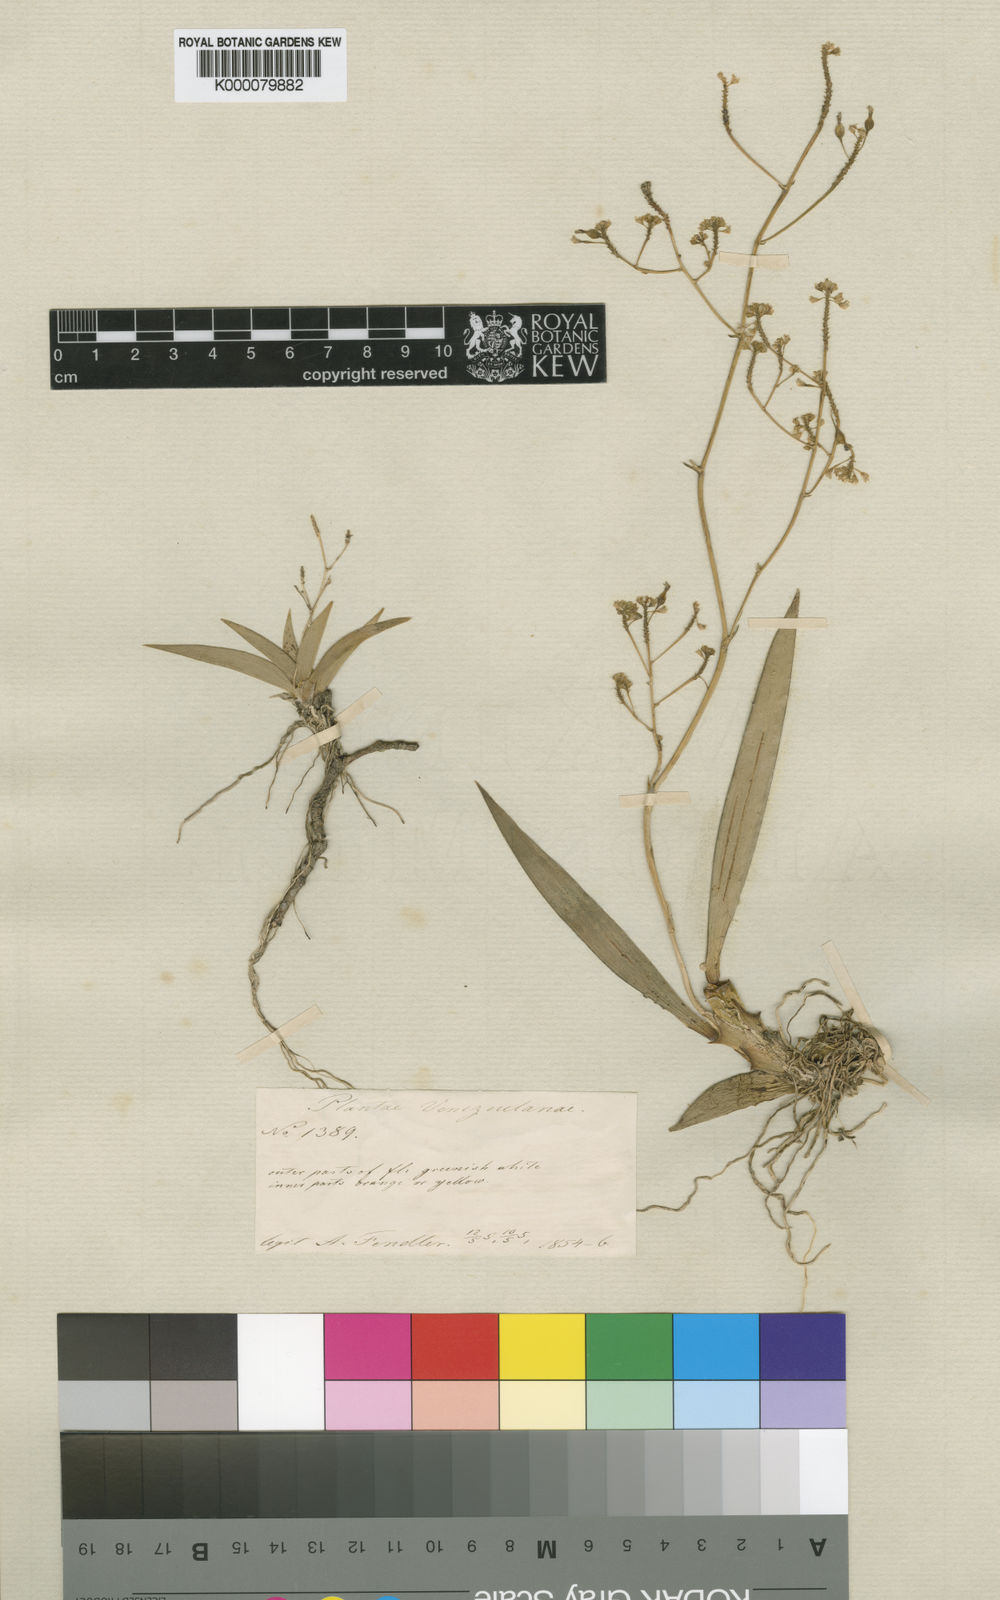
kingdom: Plantae
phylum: Tracheophyta
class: Liliopsida
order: Asparagales
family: Orchidaceae
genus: Trizeuxis
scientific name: Trizeuxis falcata
